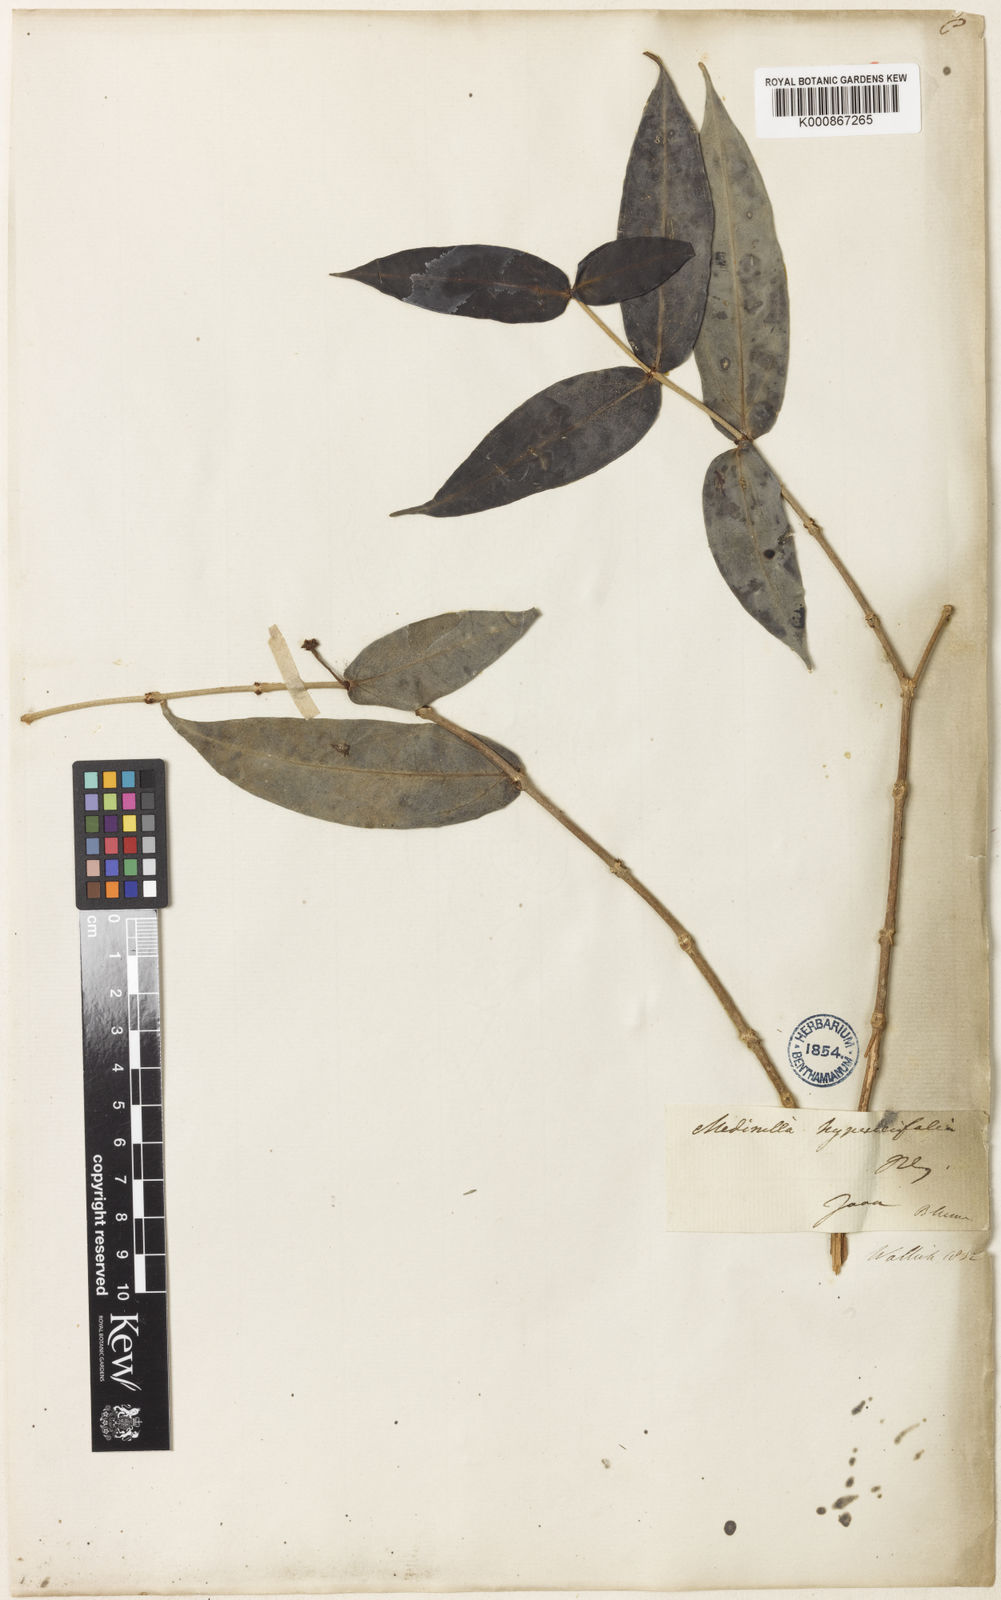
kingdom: Plantae
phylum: Tracheophyta
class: Magnoliopsida
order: Myrtales
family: Melastomataceae
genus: Medinilla
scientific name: Medinilla hypericifolia
